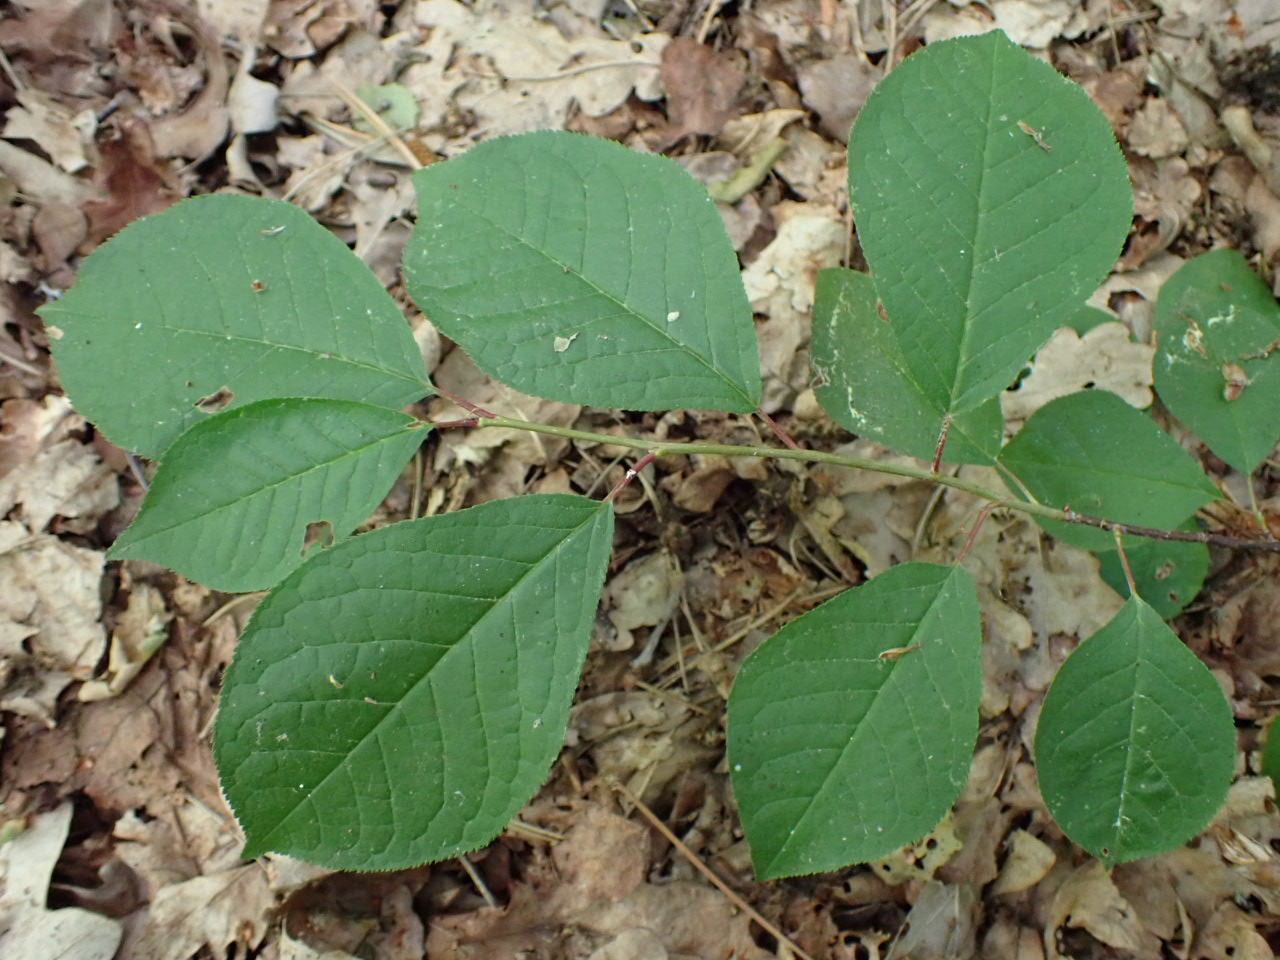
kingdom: Plantae
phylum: Tracheophyta
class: Magnoliopsida
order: Rosales
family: Rosaceae
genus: Prunus
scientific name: Prunus padus
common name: Almindelig hæg
